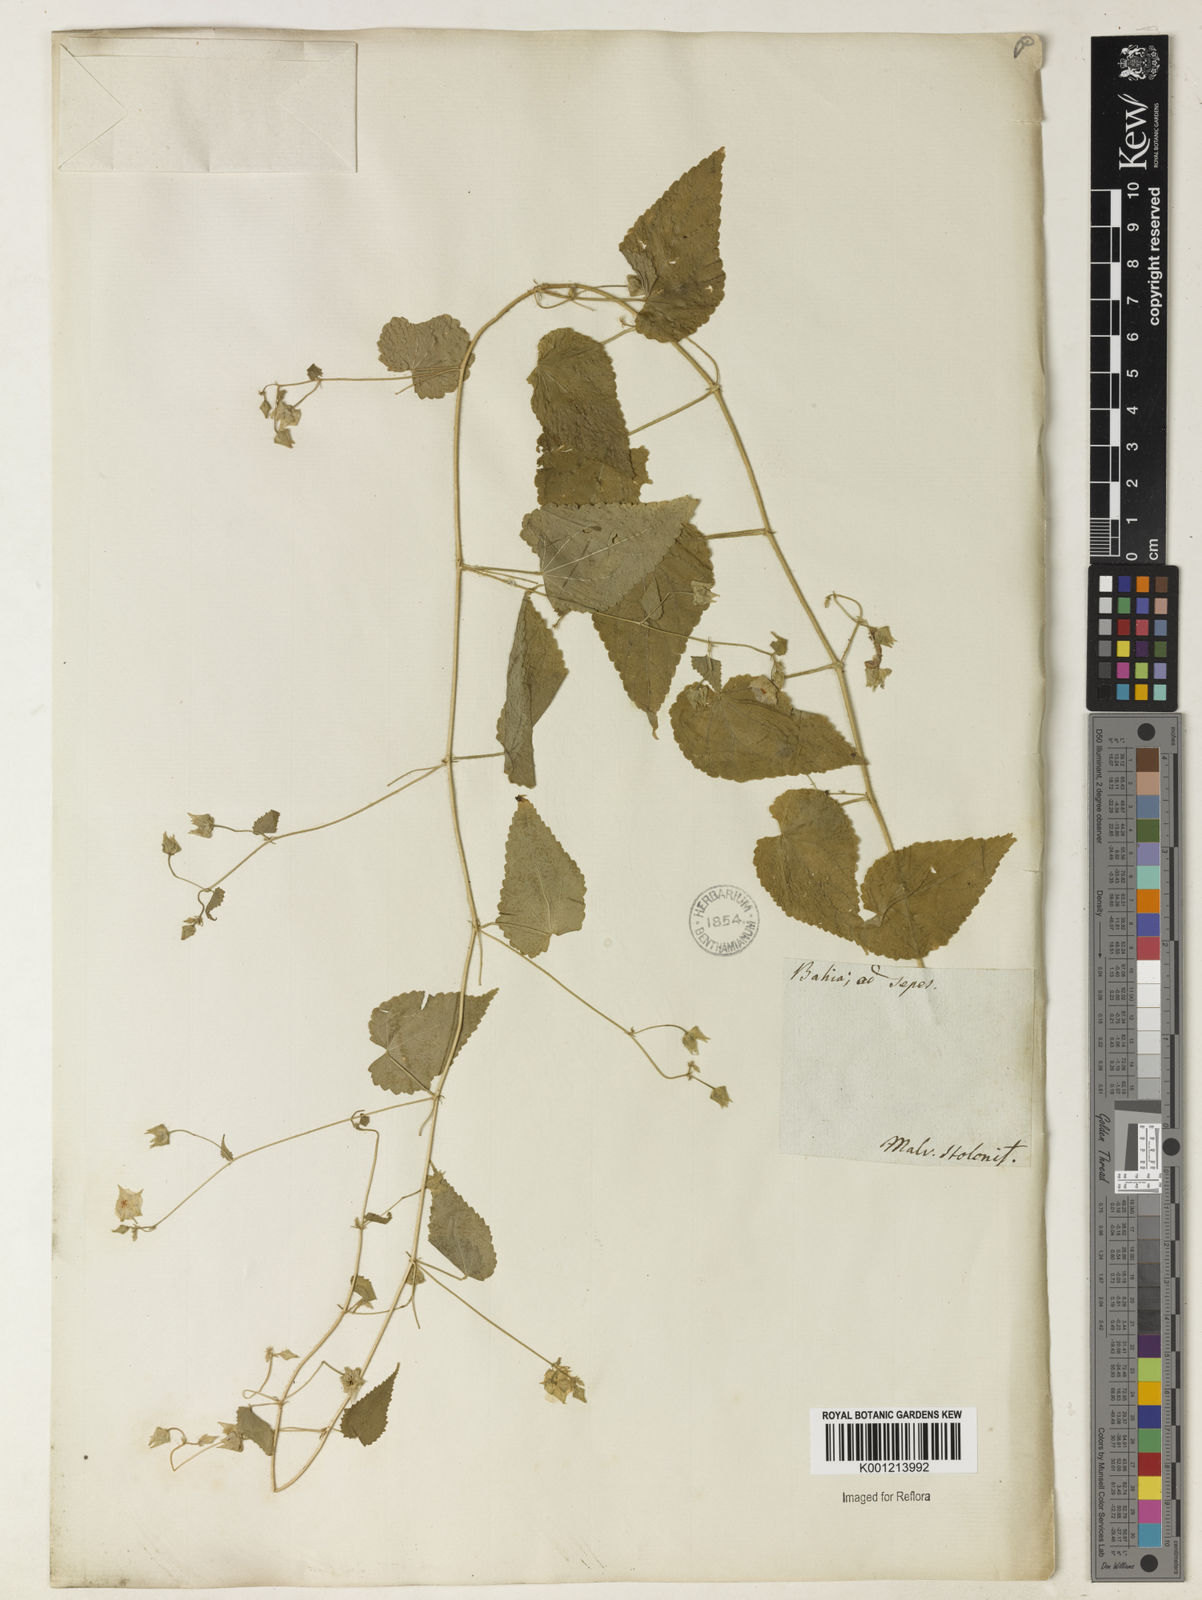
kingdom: Plantae
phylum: Tracheophyta
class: Magnoliopsida
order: Malvales
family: Malvaceae
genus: Sida
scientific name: Sida jussieana
